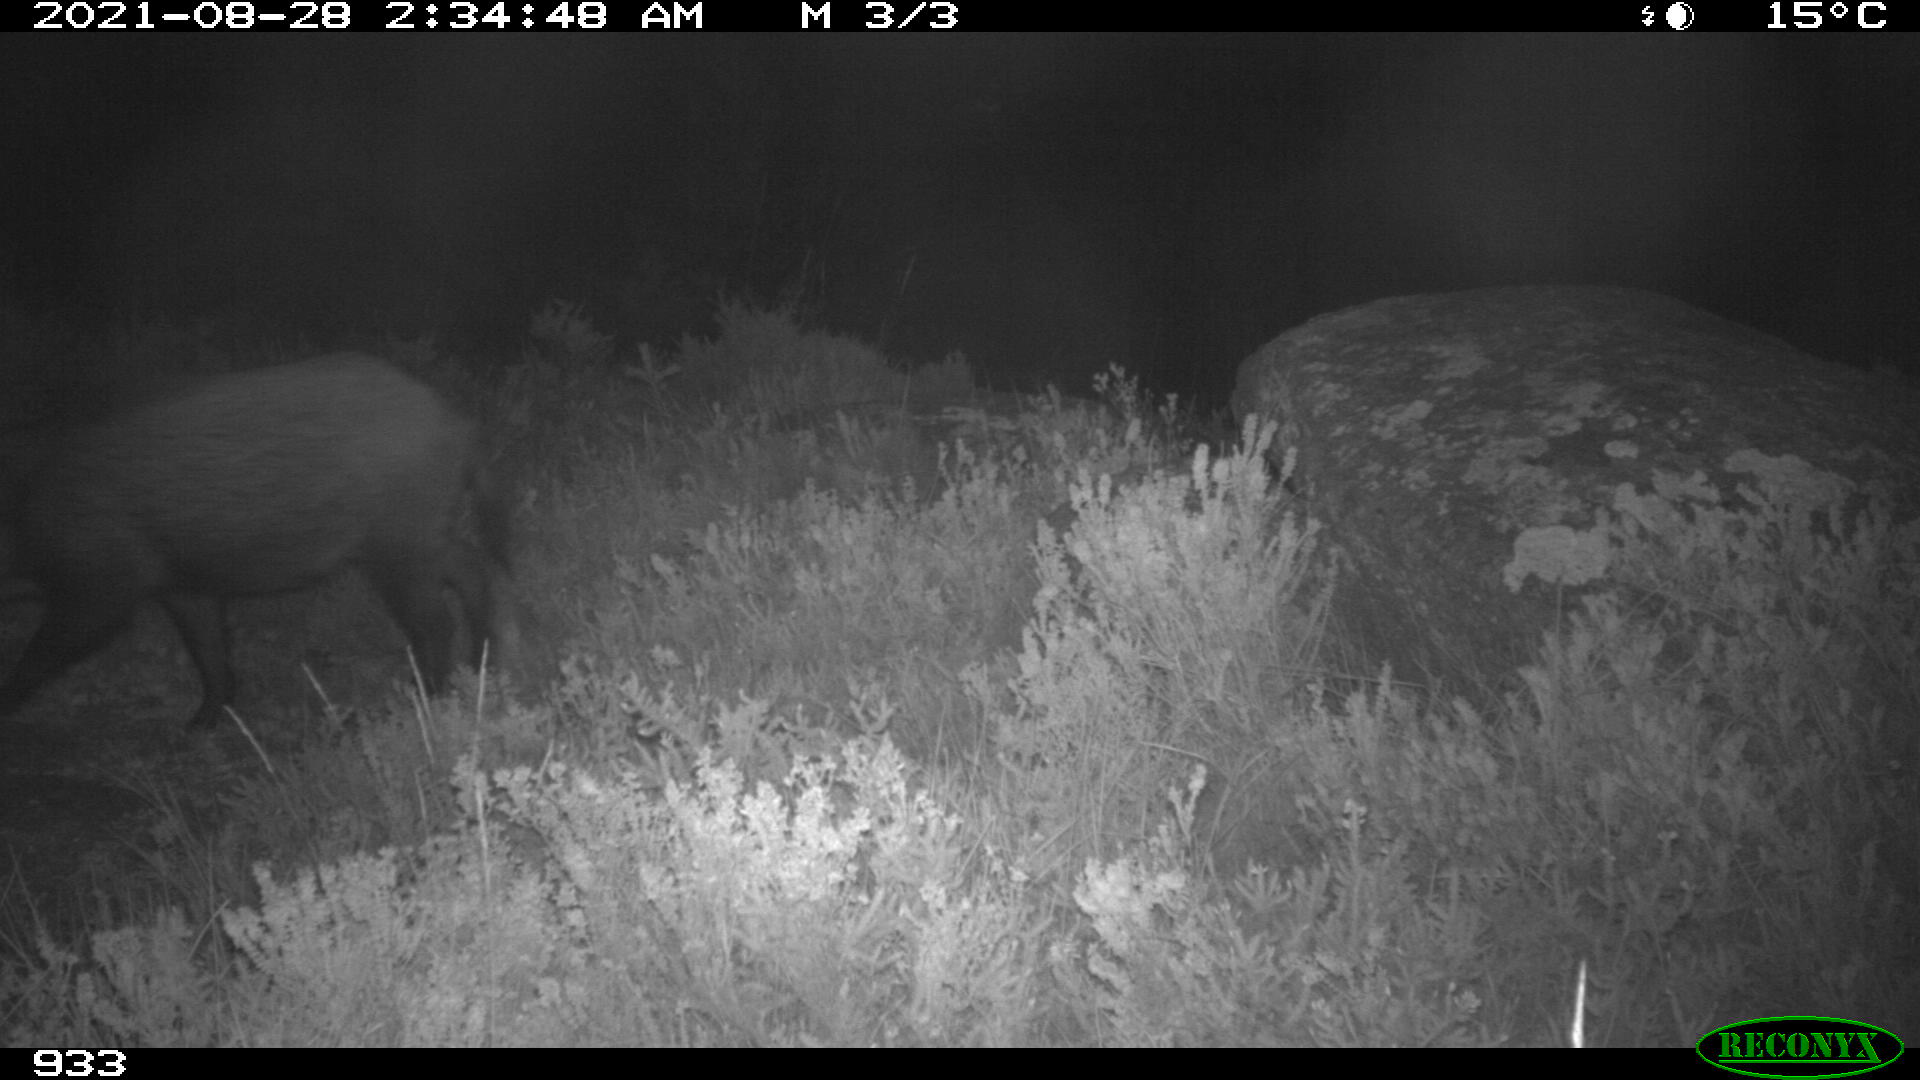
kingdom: Animalia
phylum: Chordata
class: Mammalia
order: Artiodactyla
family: Suidae
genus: Sus
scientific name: Sus scrofa
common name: Wild boar
